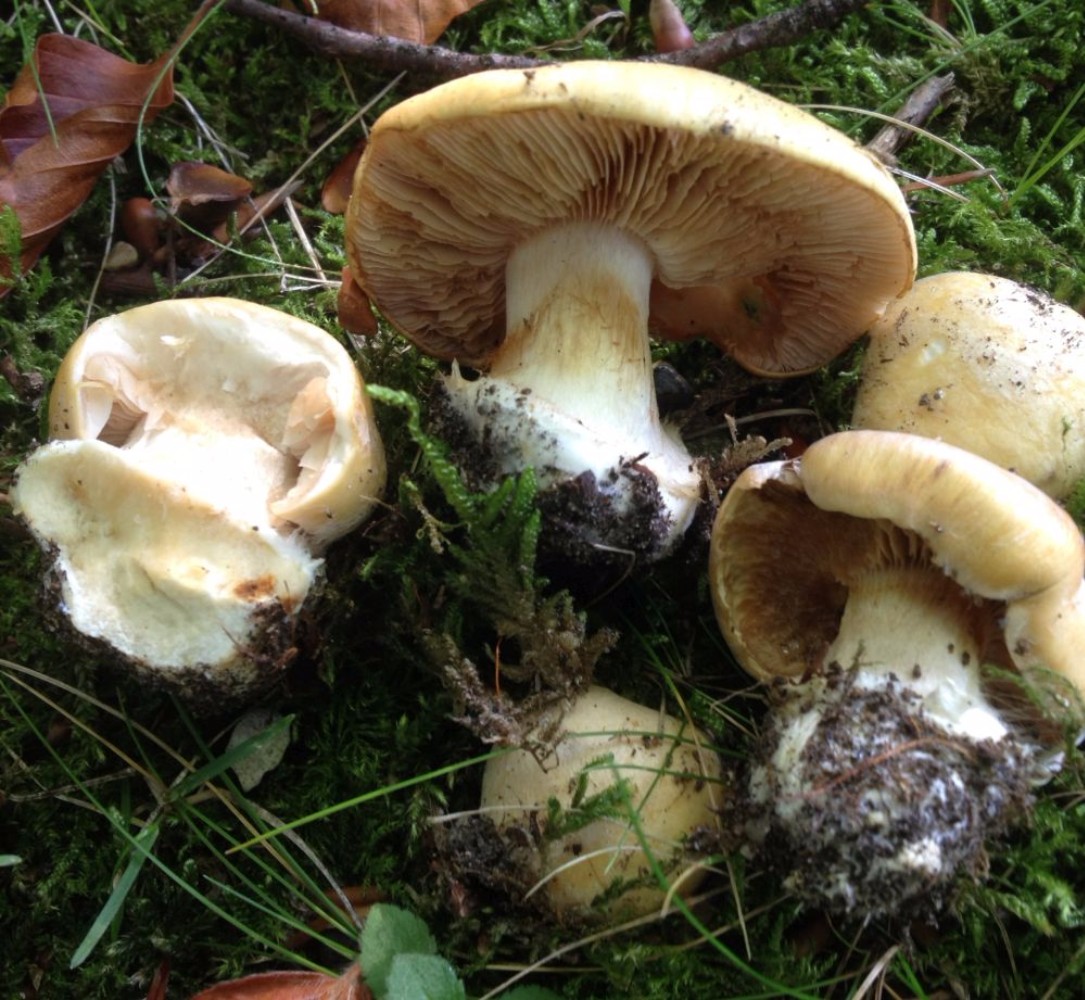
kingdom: Fungi
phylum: Basidiomycota
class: Agaricomycetes
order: Agaricales
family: Cortinariaceae
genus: Phlegmacium
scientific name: Phlegmacium xantho-ochraceum
